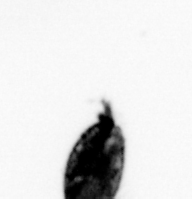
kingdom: Animalia
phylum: Arthropoda
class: Maxillopoda
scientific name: Maxillopoda
